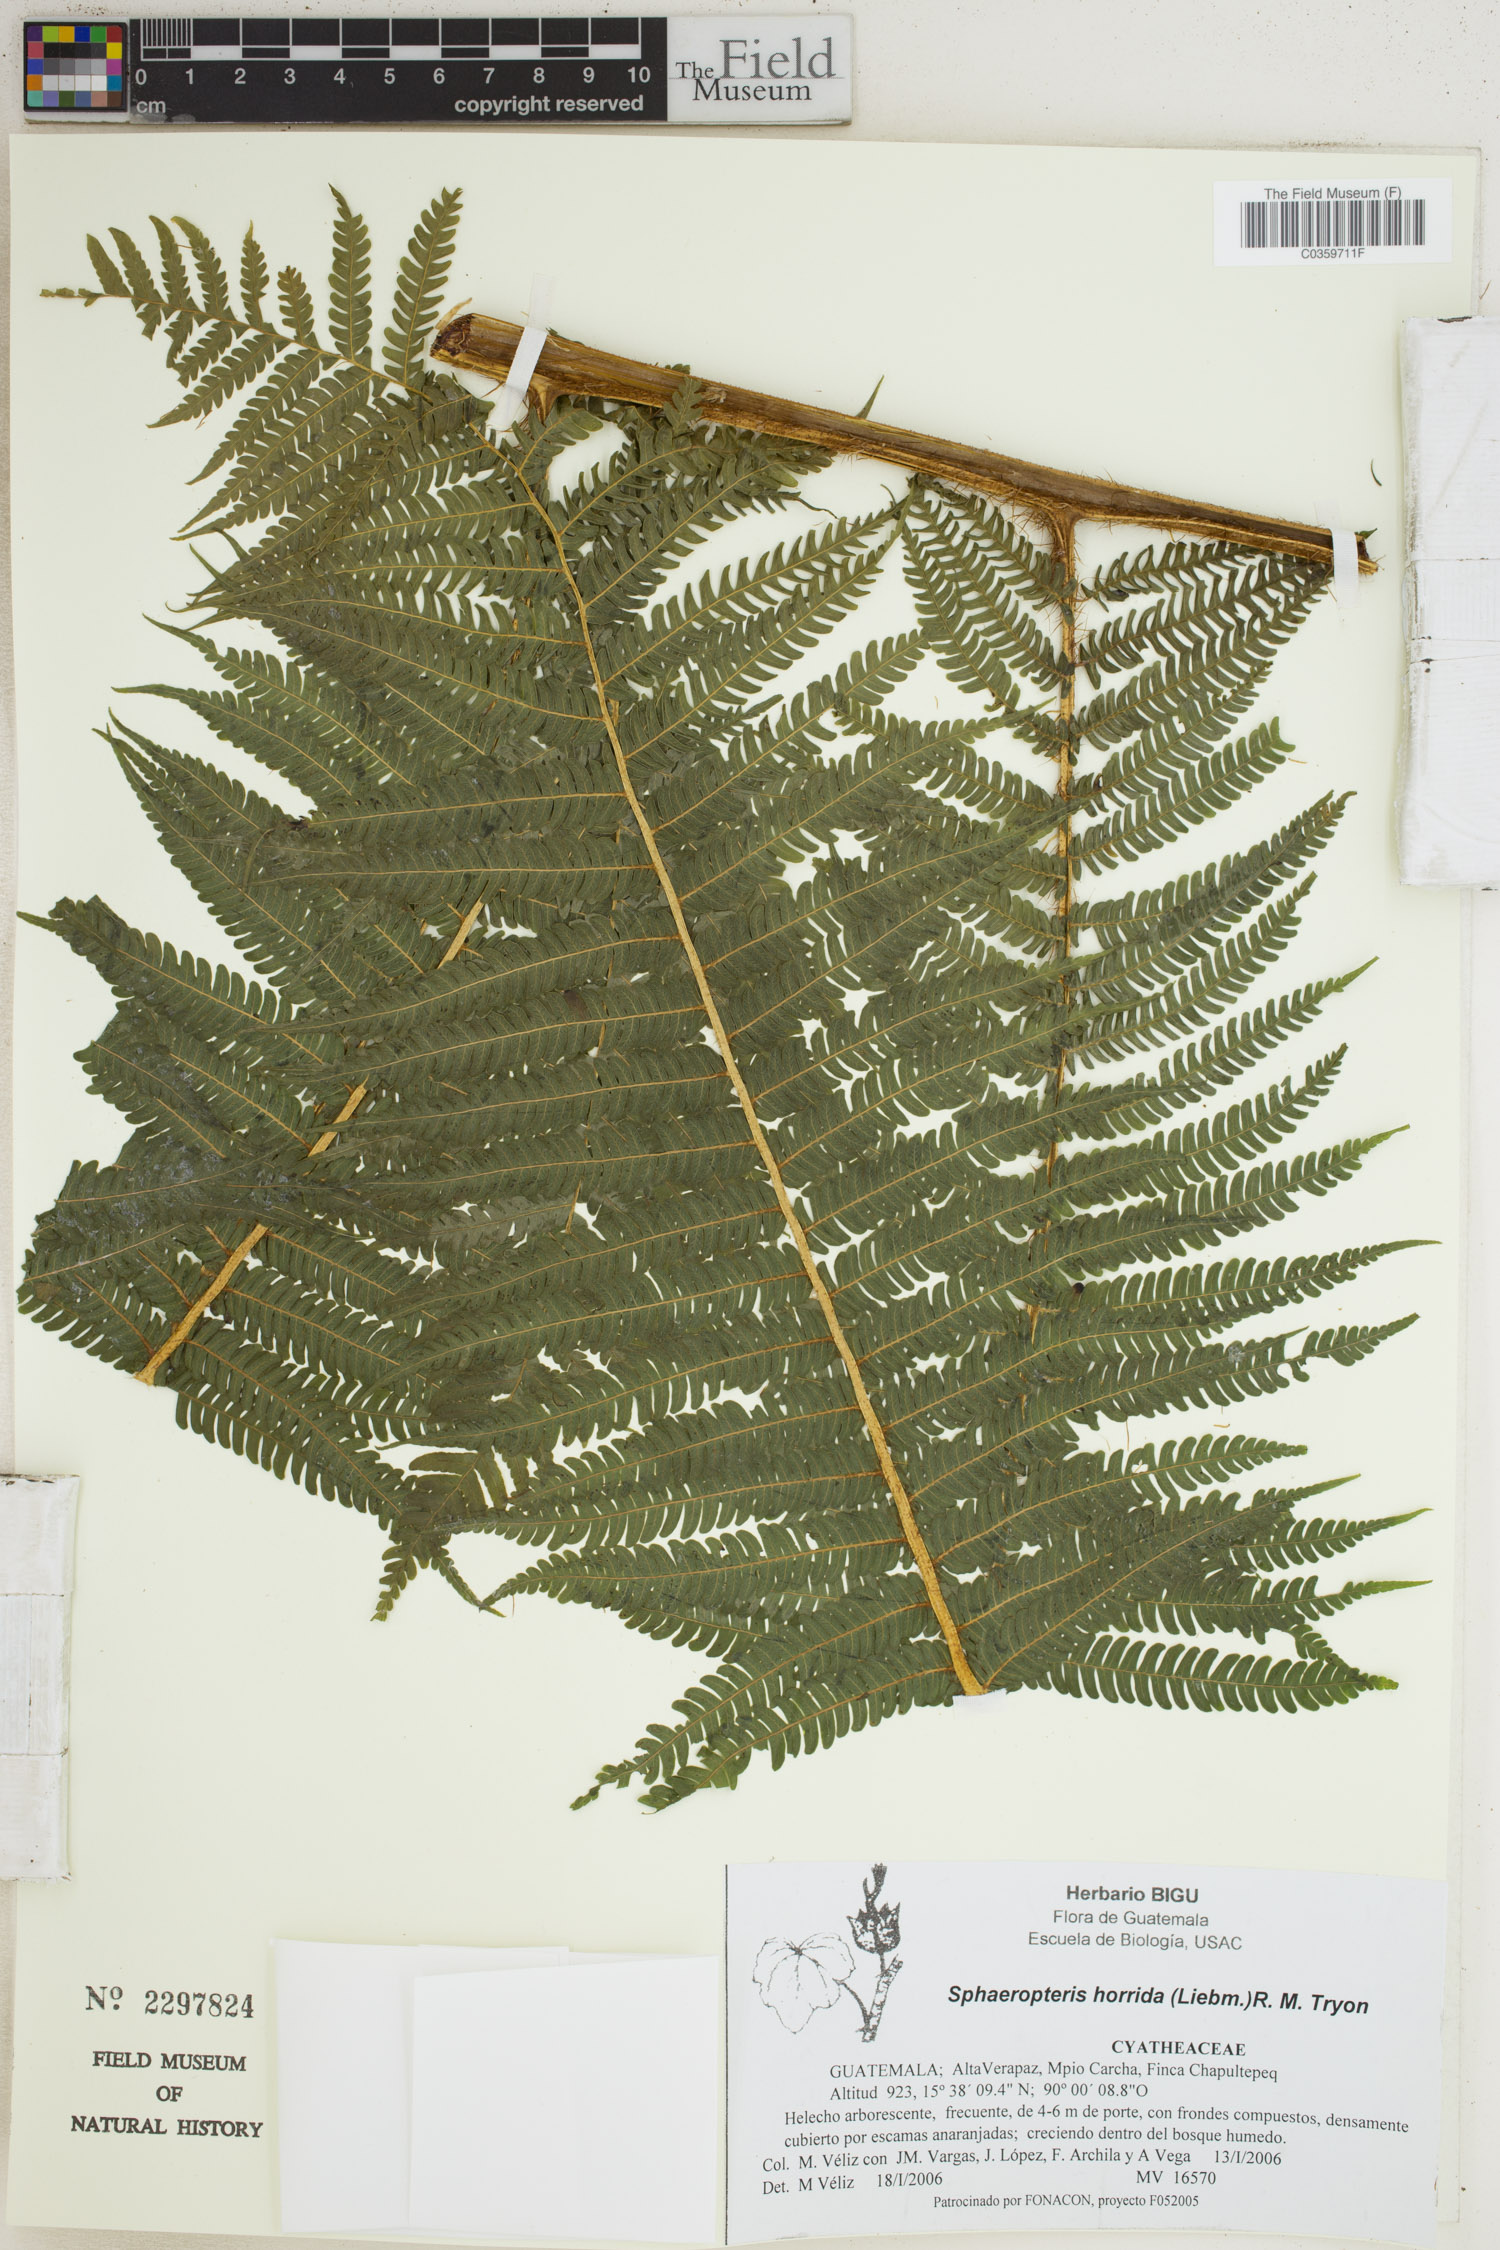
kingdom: Plantae
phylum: Tracheophyta
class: Polypodiopsida
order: Cyatheales
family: Cyatheaceae
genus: Sphaeropteris
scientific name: Sphaeropteris horrida
